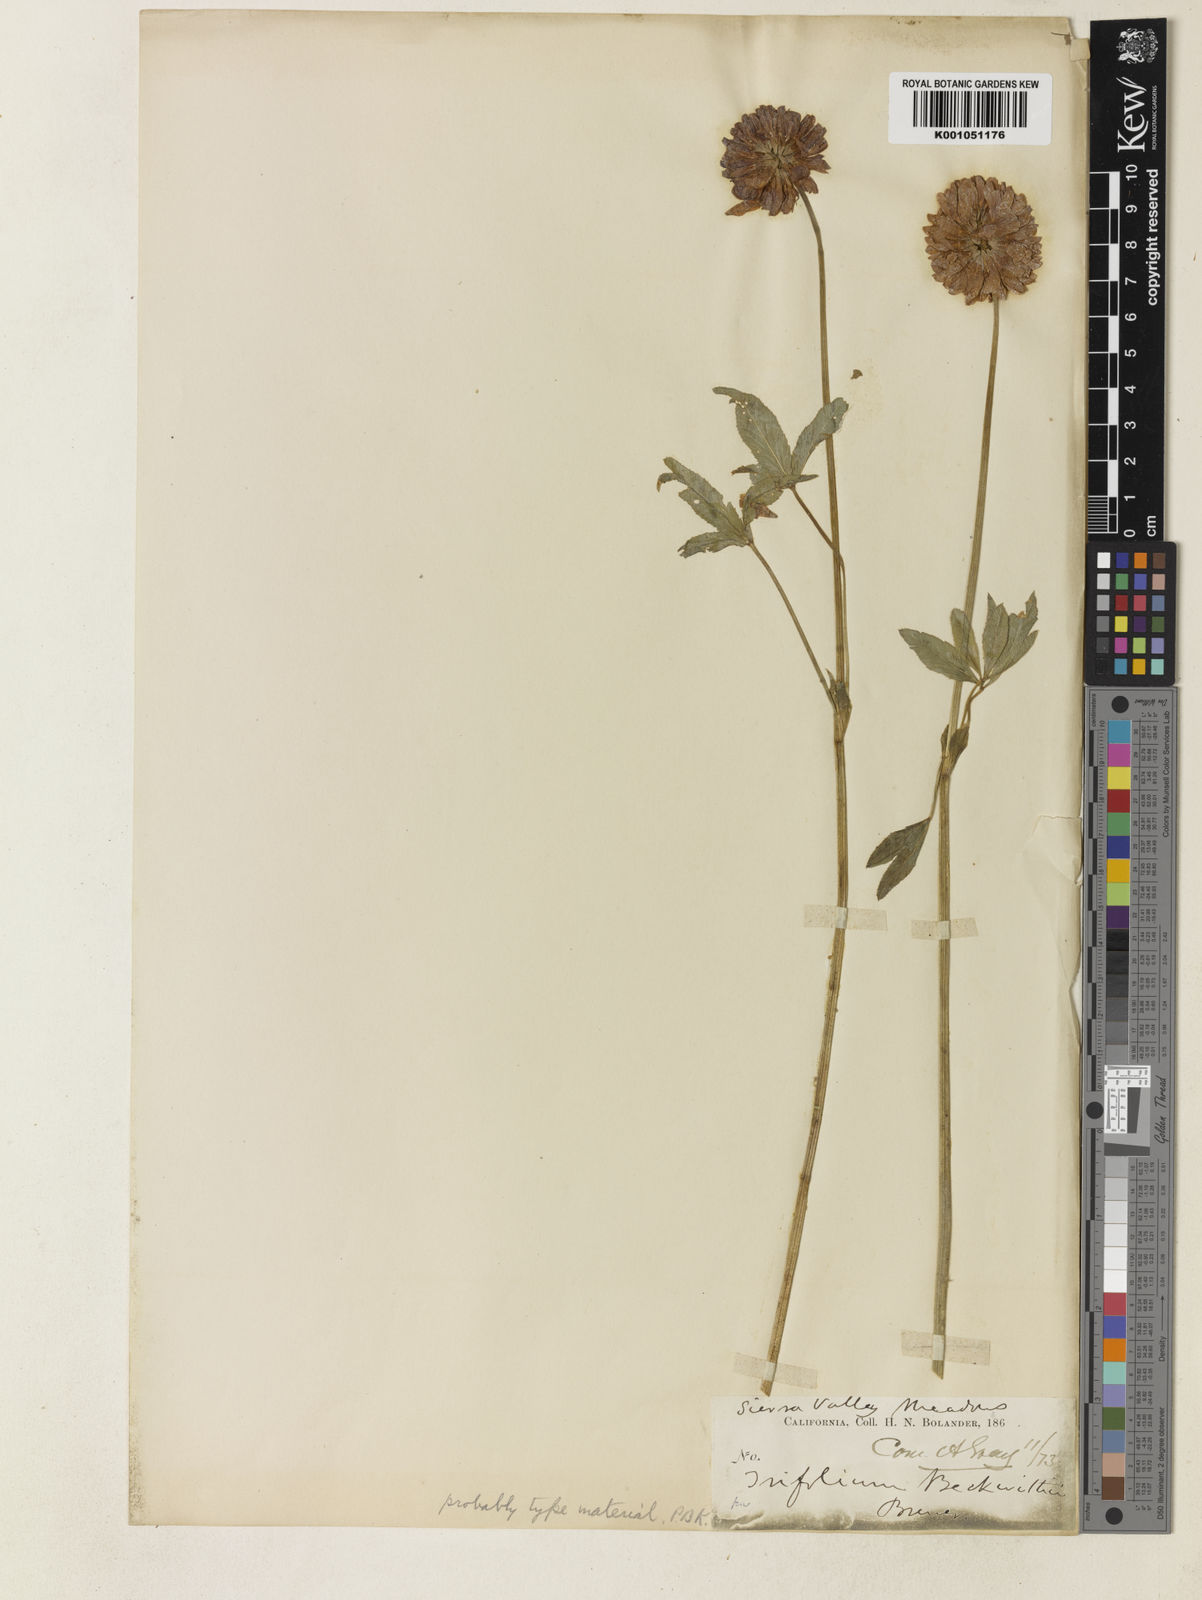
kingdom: Plantae
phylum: Tracheophyta
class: Magnoliopsida
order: Fabales
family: Fabaceae
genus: Trifolium
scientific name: Trifolium beckwithii
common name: Beckwith's clover
